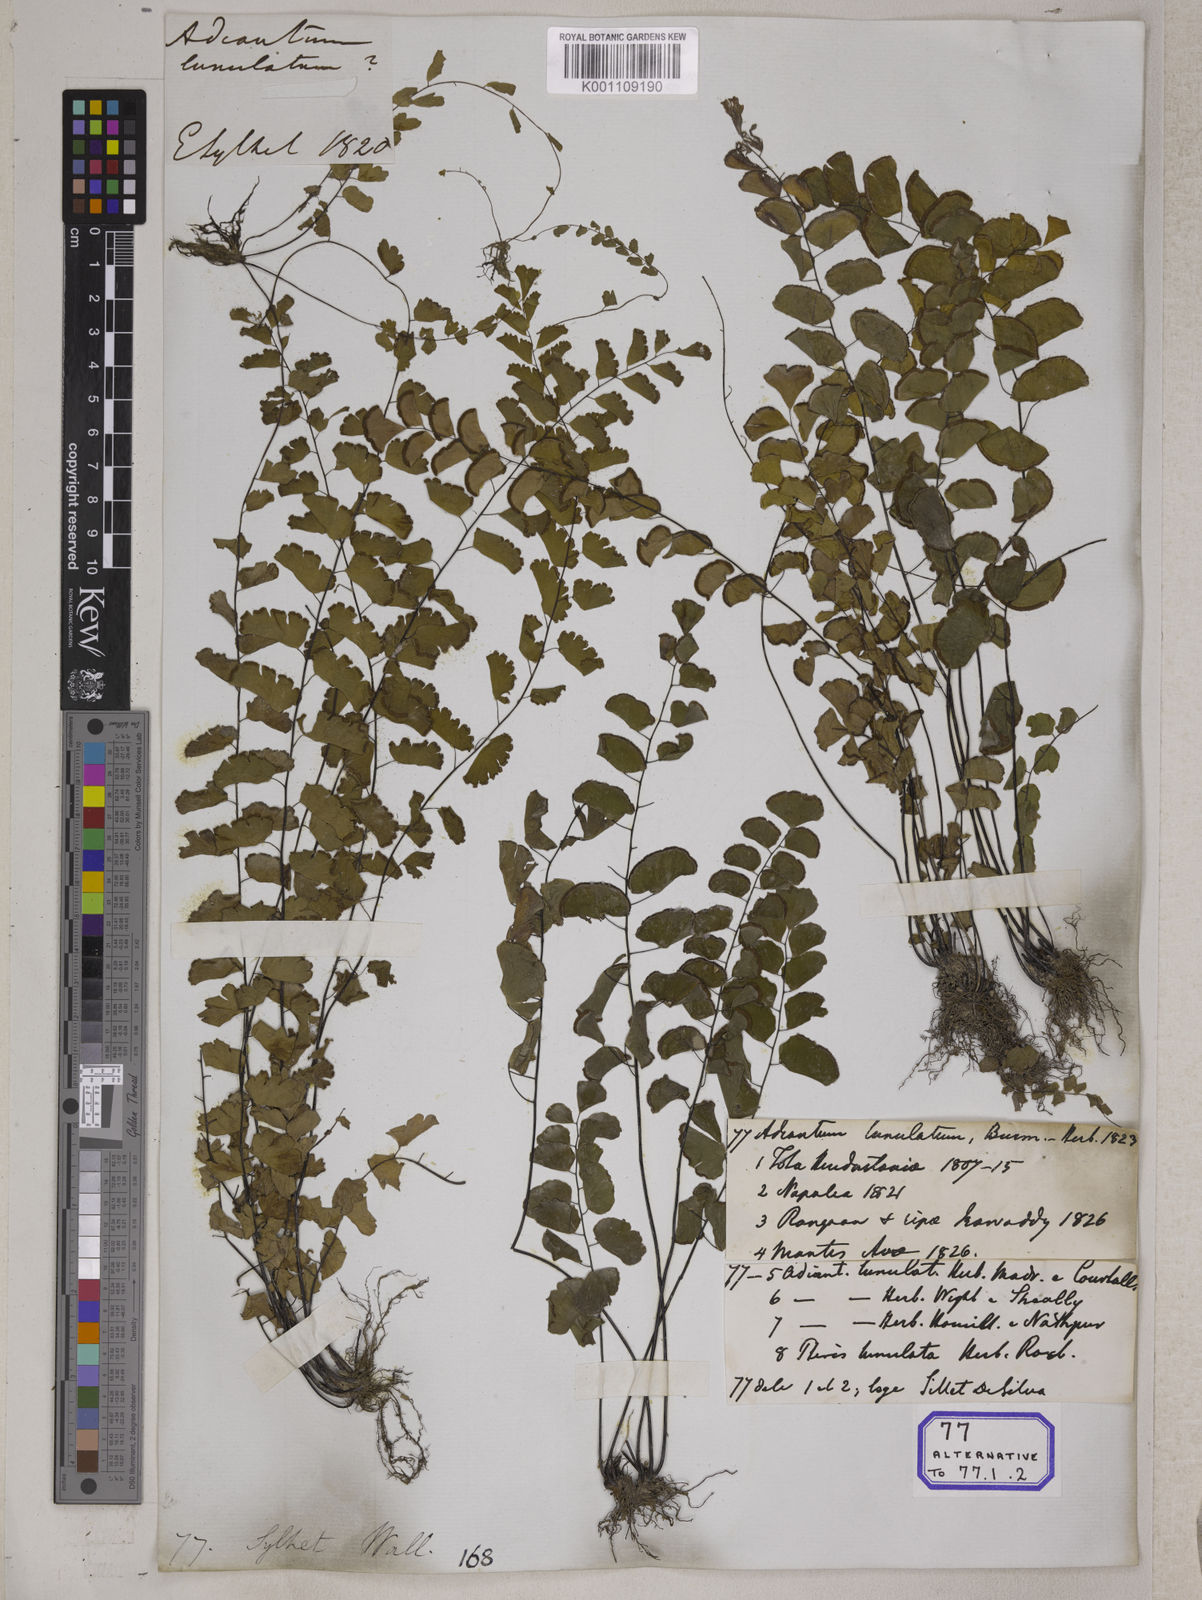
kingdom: Plantae
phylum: Tracheophyta
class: Polypodiopsida
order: Polypodiales
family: Pteridaceae
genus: Adiantum
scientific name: Adiantum philippense
